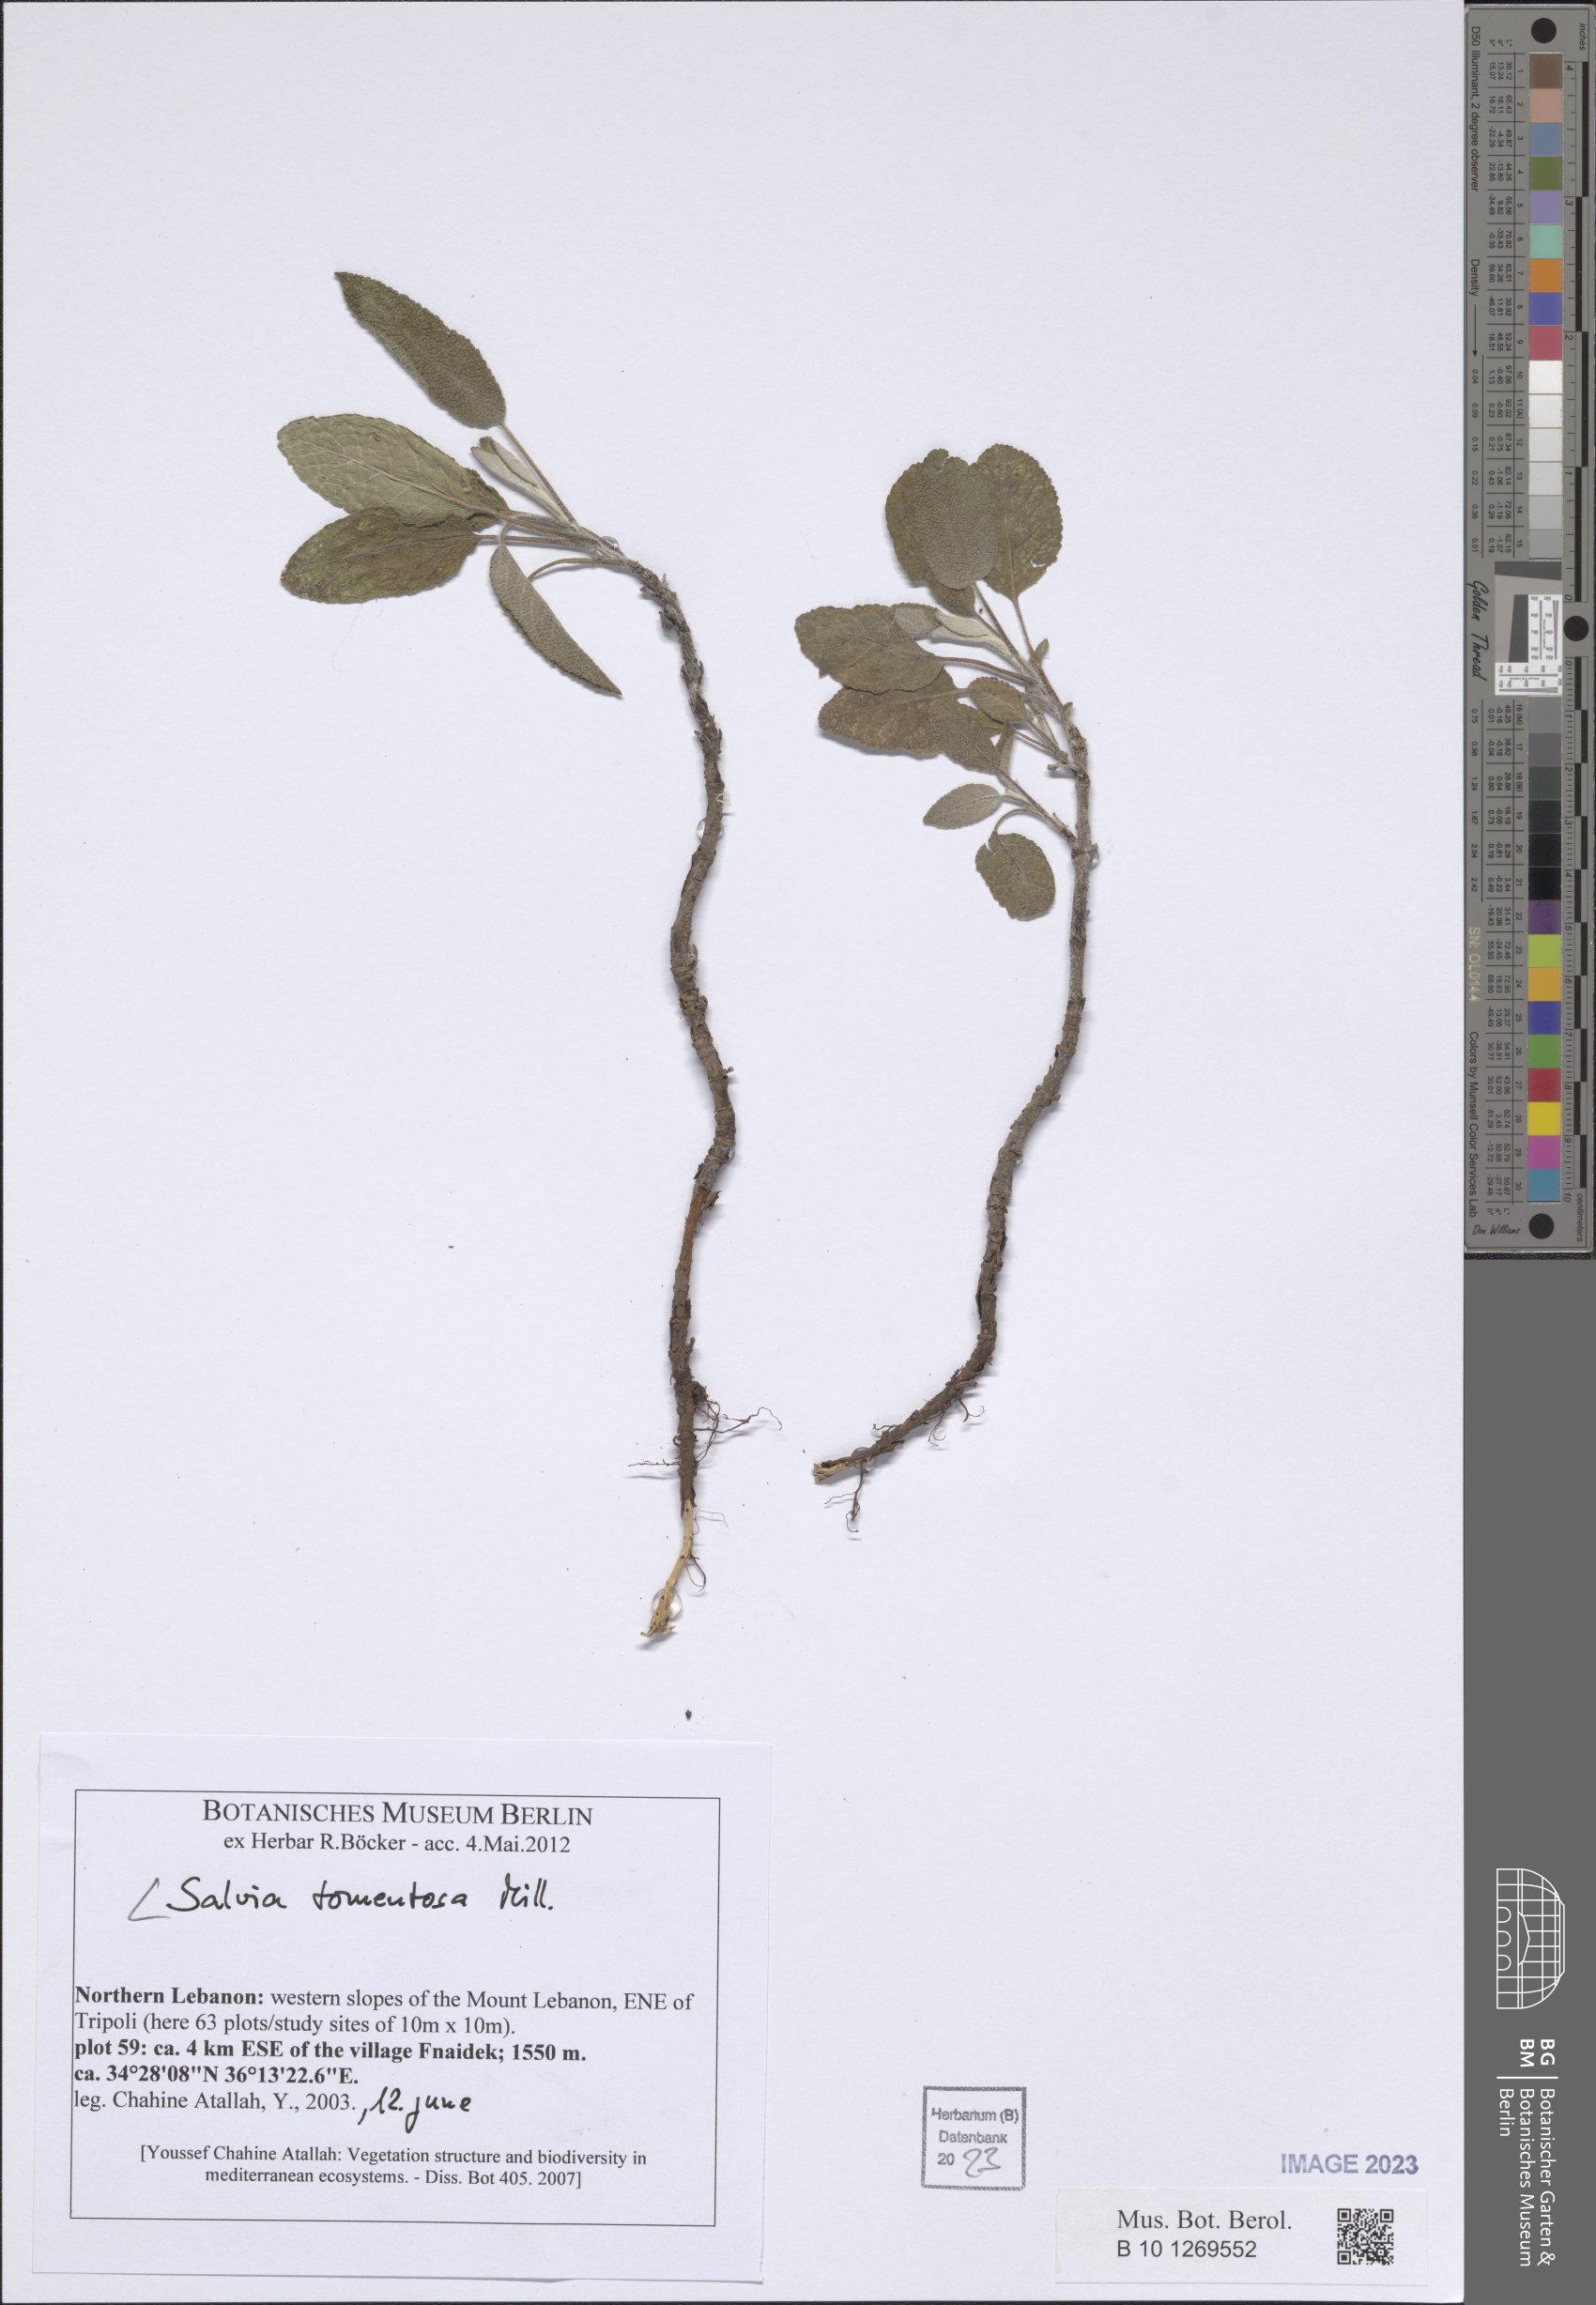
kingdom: Plantae
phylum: Tracheophyta
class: Magnoliopsida
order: Lamiales
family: Lamiaceae
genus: Salvia
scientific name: Salvia tomentosa
